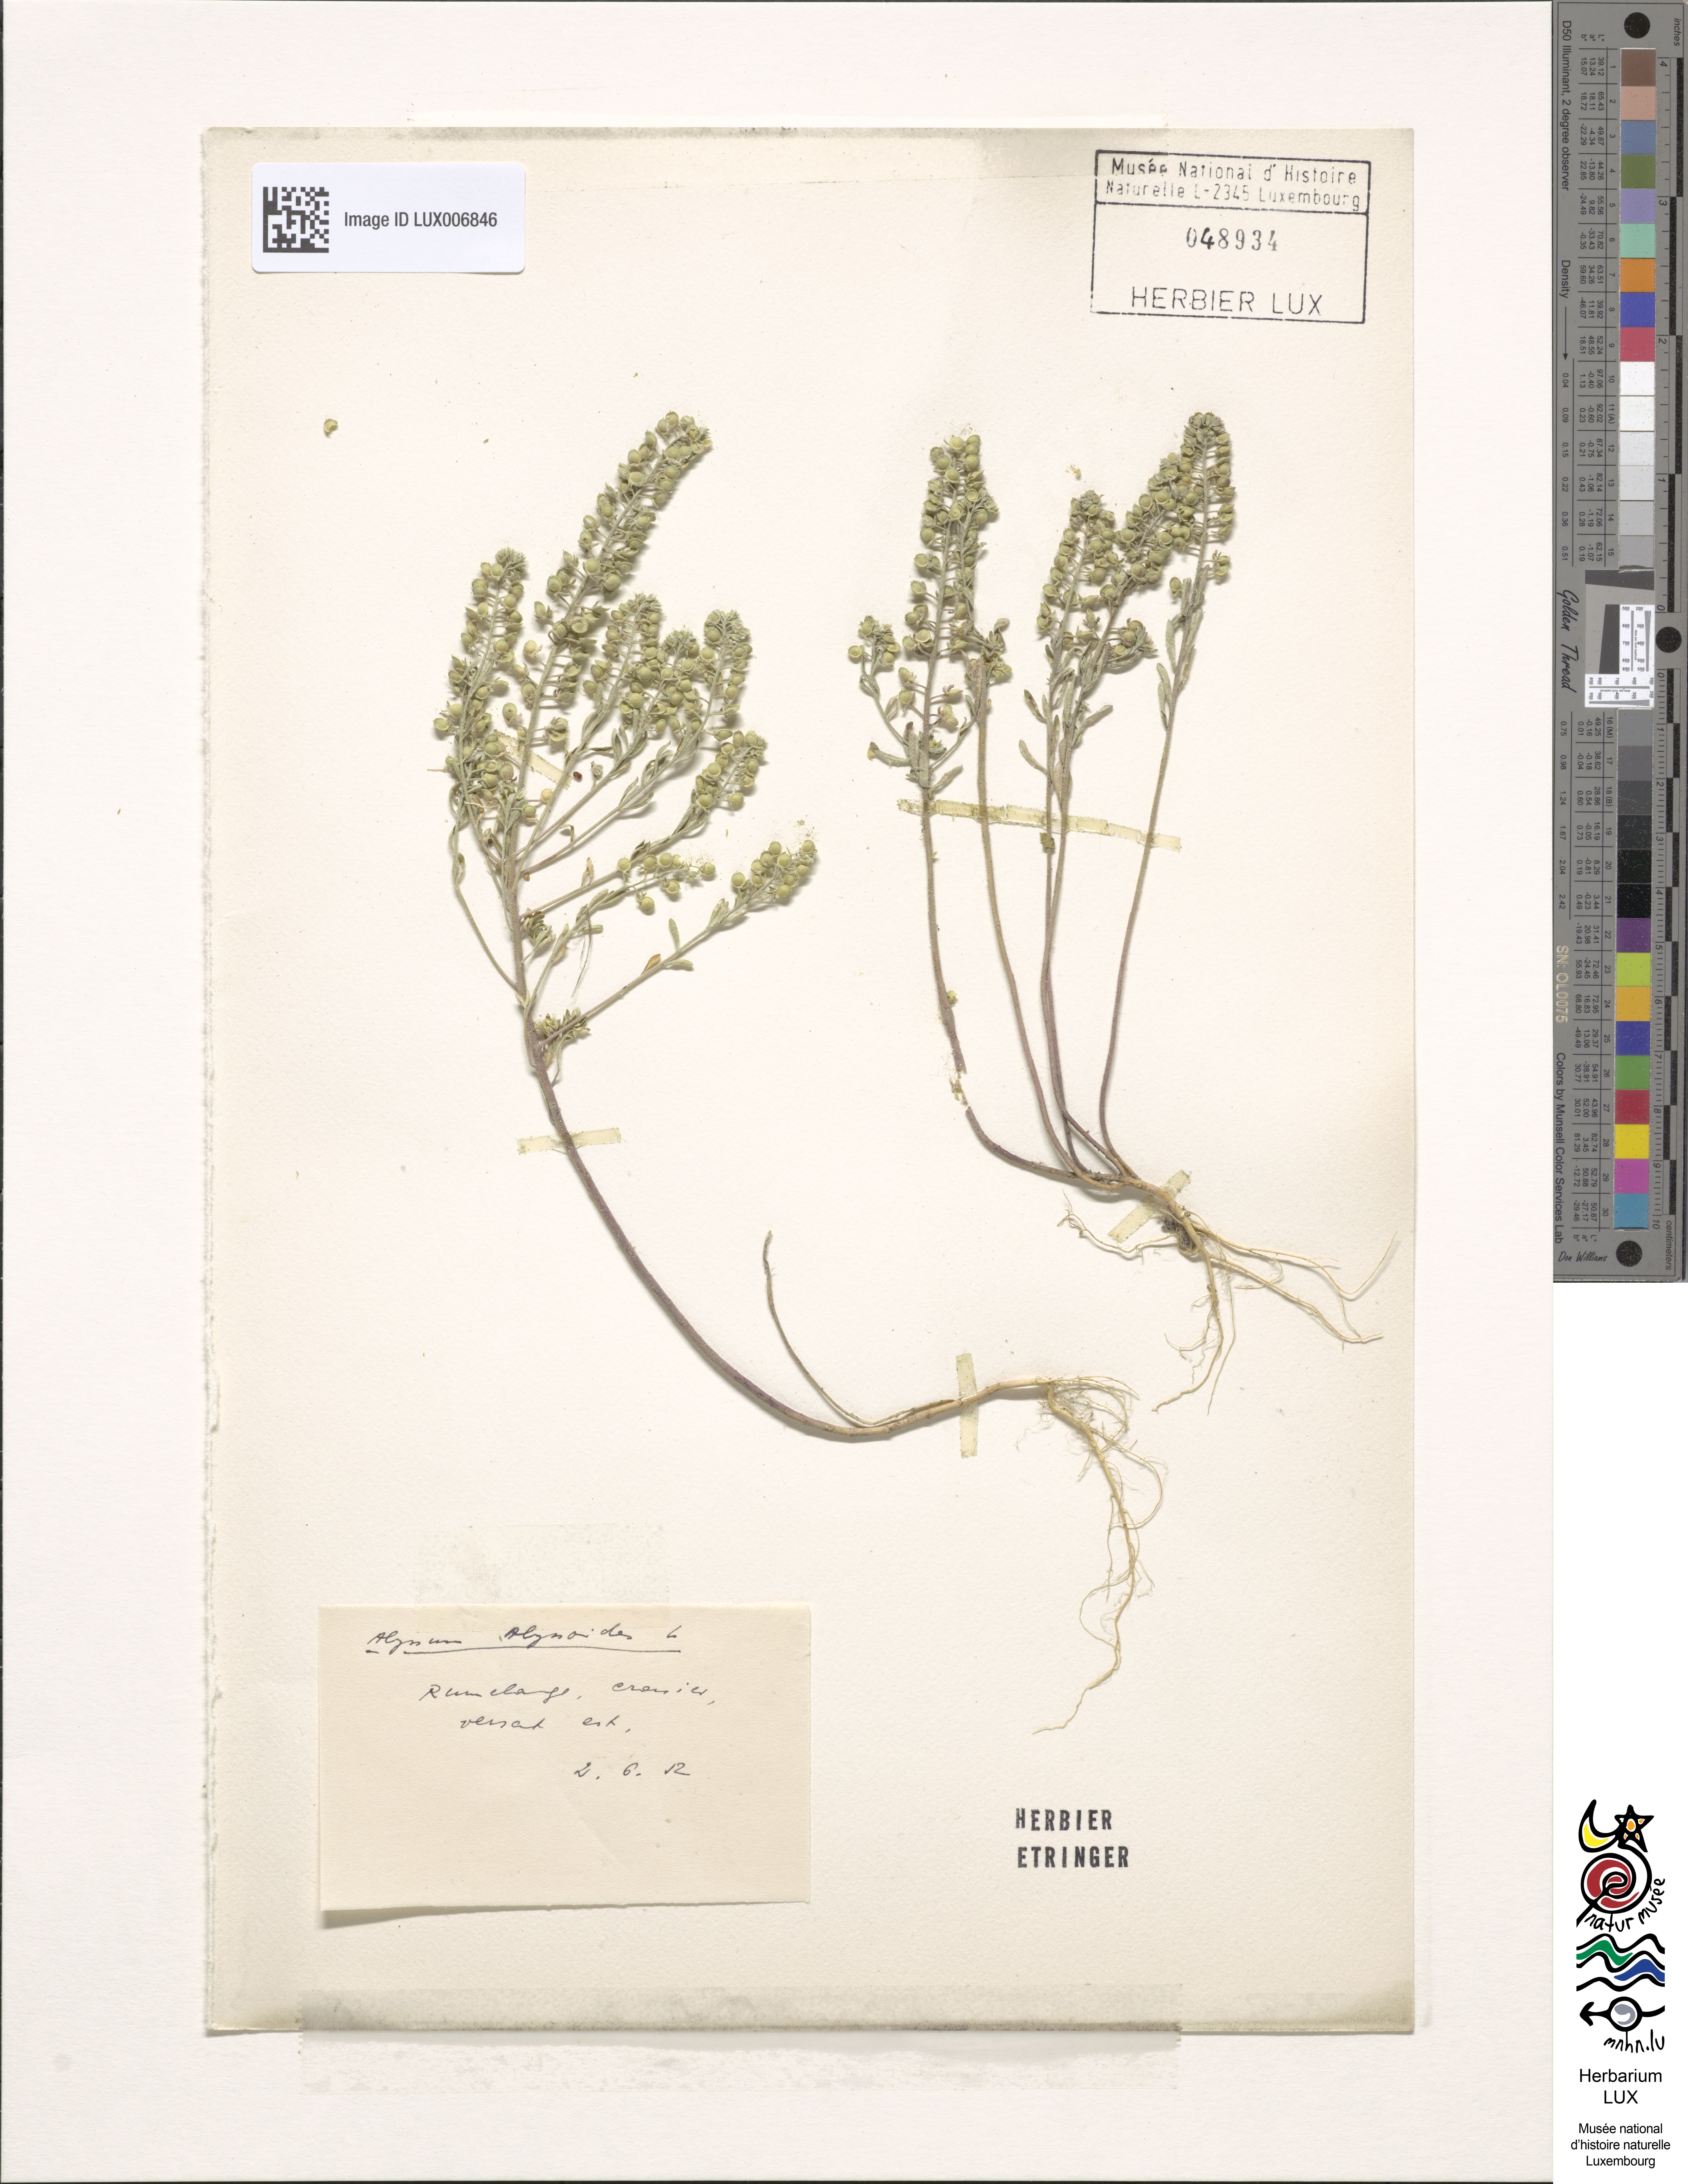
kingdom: Plantae
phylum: Tracheophyta
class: Magnoliopsida
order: Brassicales
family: Brassicaceae
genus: Alyssum
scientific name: Alyssum alyssoides
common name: Small alison
